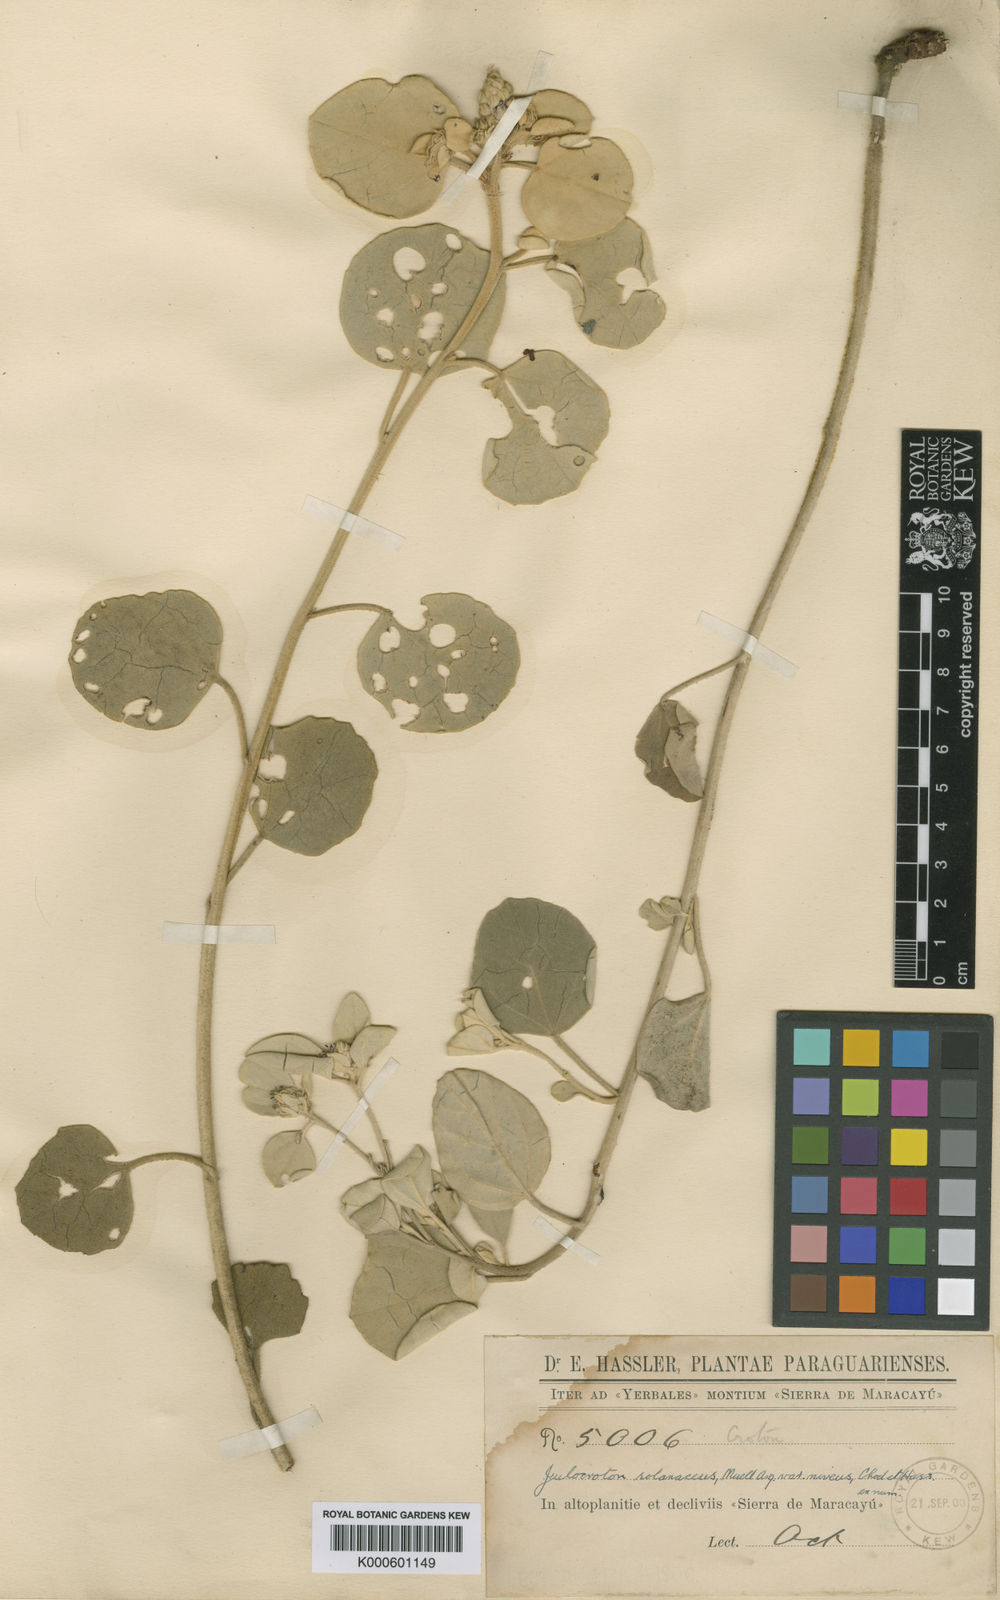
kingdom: Plantae
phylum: Tracheophyta
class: Magnoliopsida
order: Malpighiales
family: Euphorbiaceae
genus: Croton
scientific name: Croton
